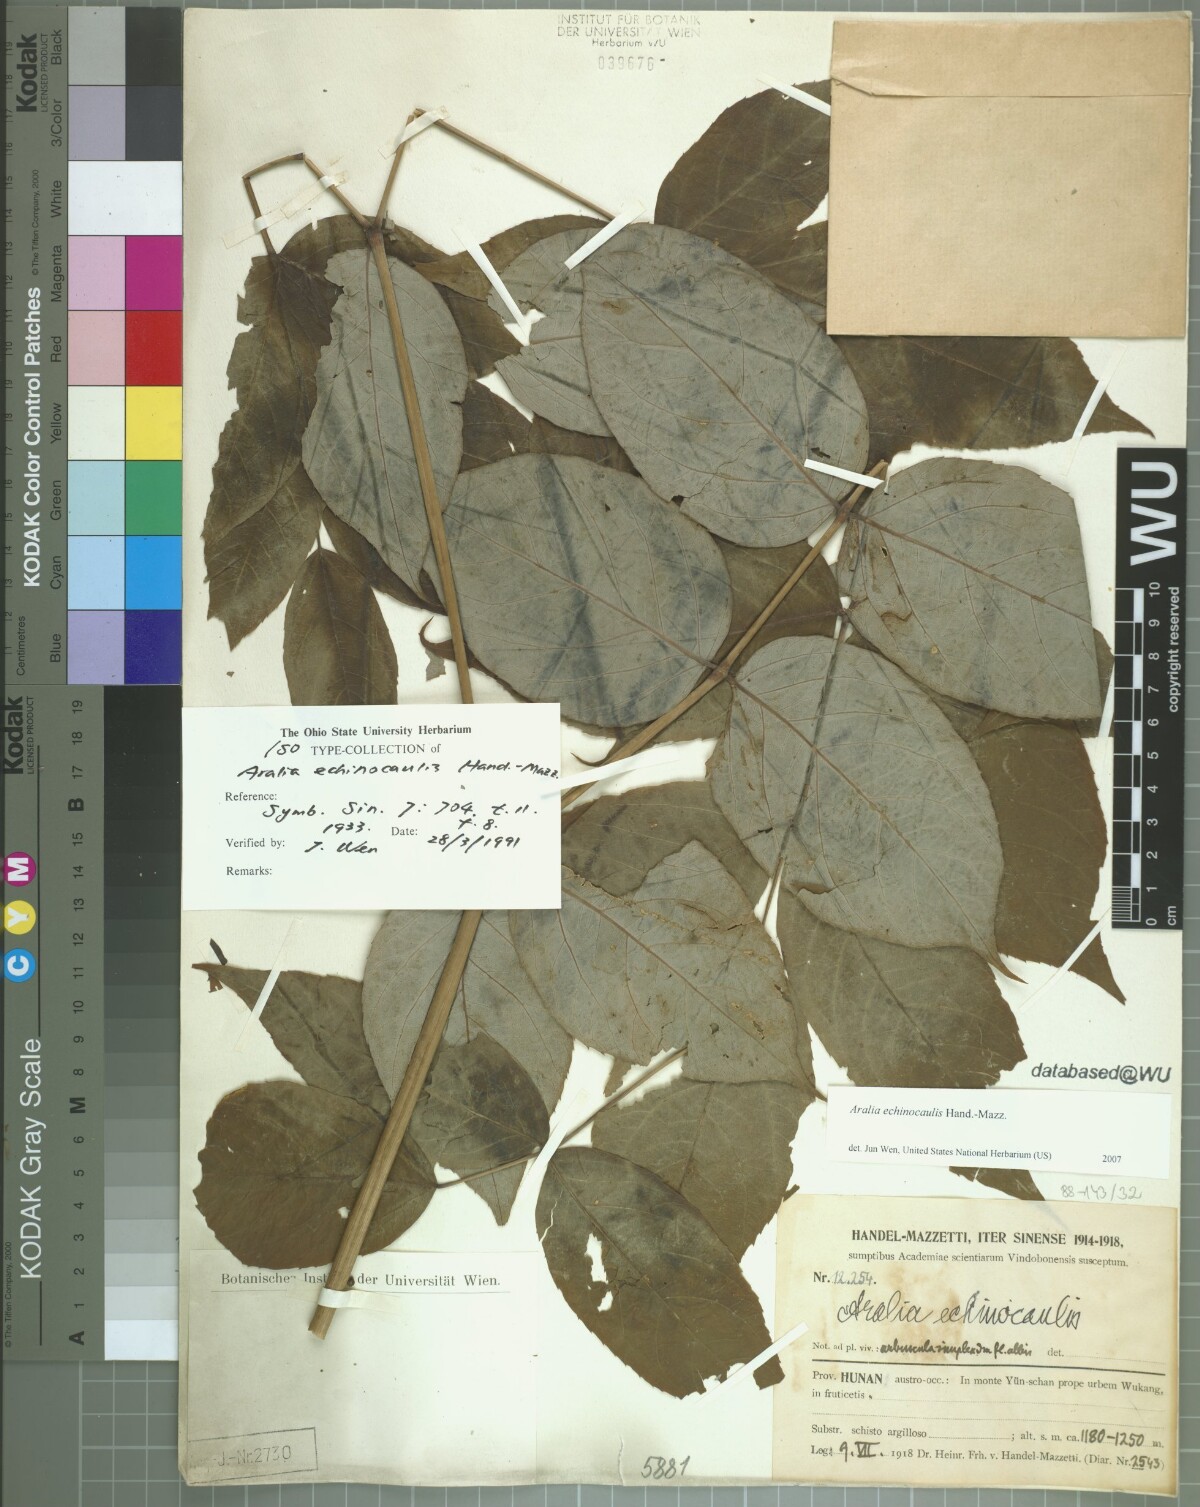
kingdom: Plantae
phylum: Tracheophyta
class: Magnoliopsida
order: Apiales
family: Araliaceae
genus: Aralia
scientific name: Aralia echinocaulis
